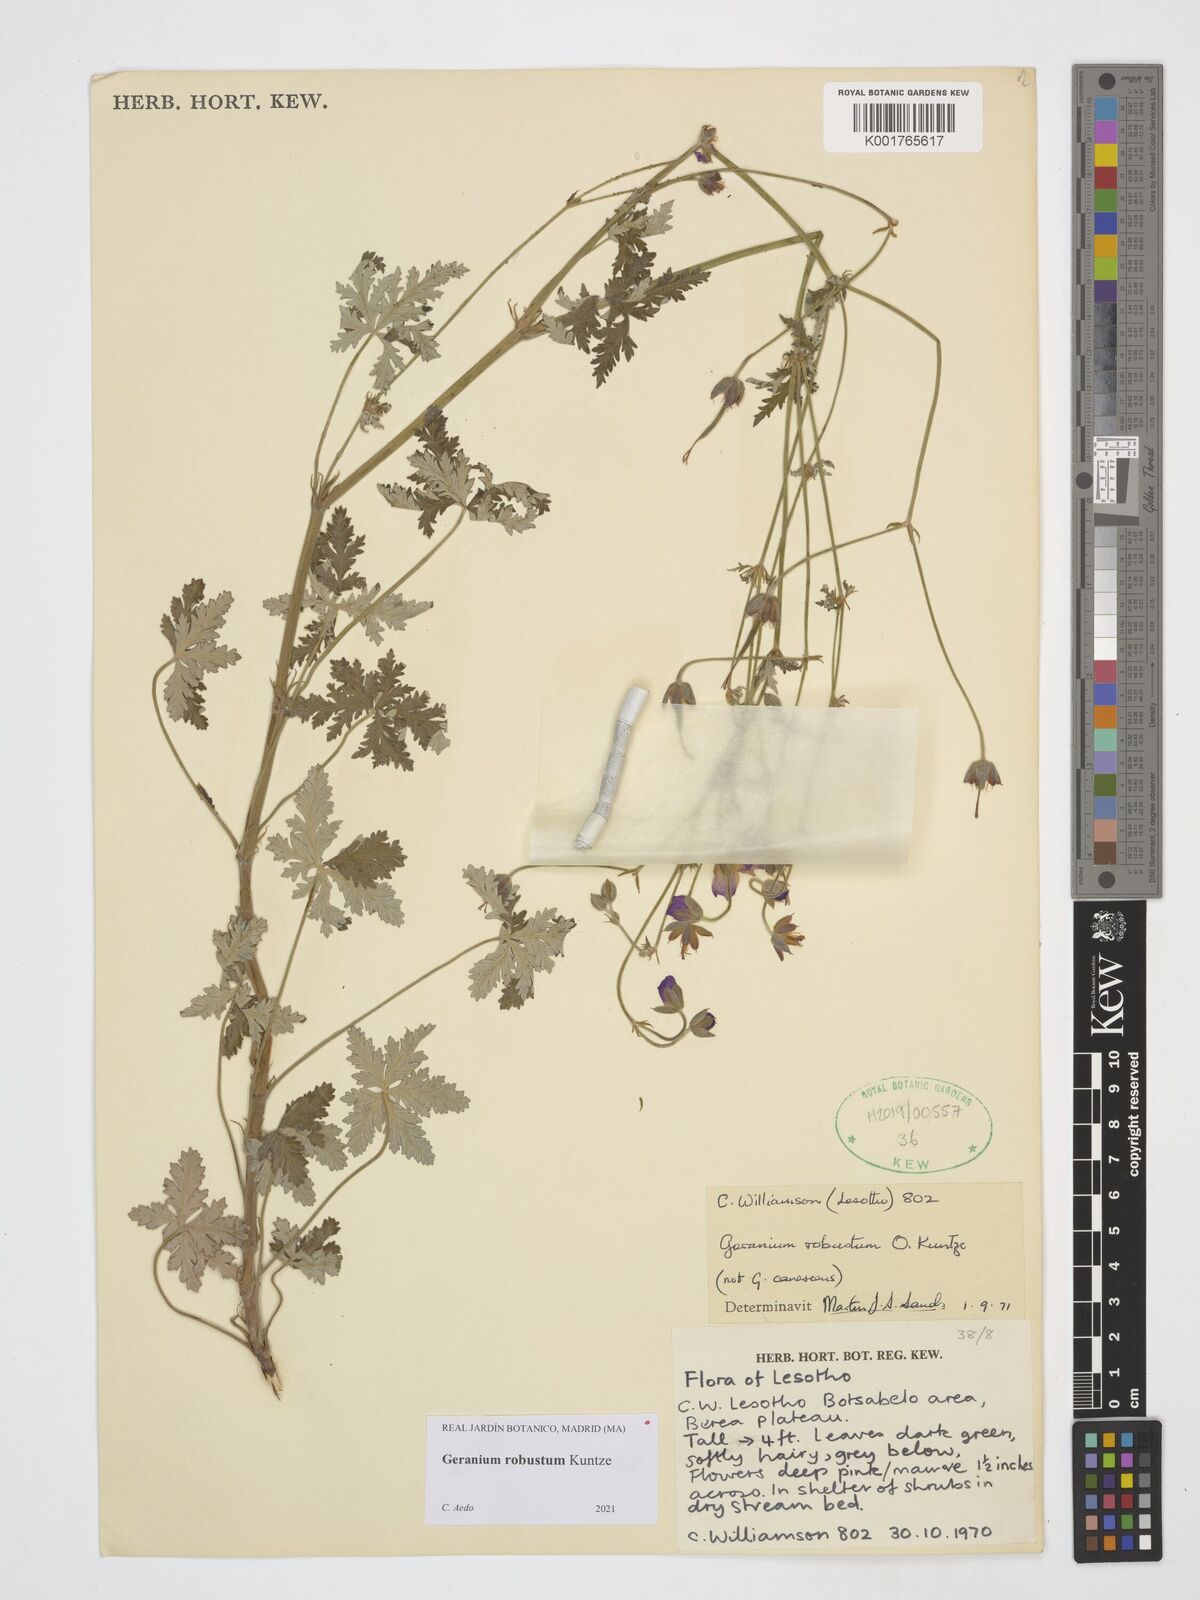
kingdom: Plantae
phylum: Tracheophyta
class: Magnoliopsida
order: Geraniales
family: Geraniaceae
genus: Geranium
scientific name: Geranium robustum
